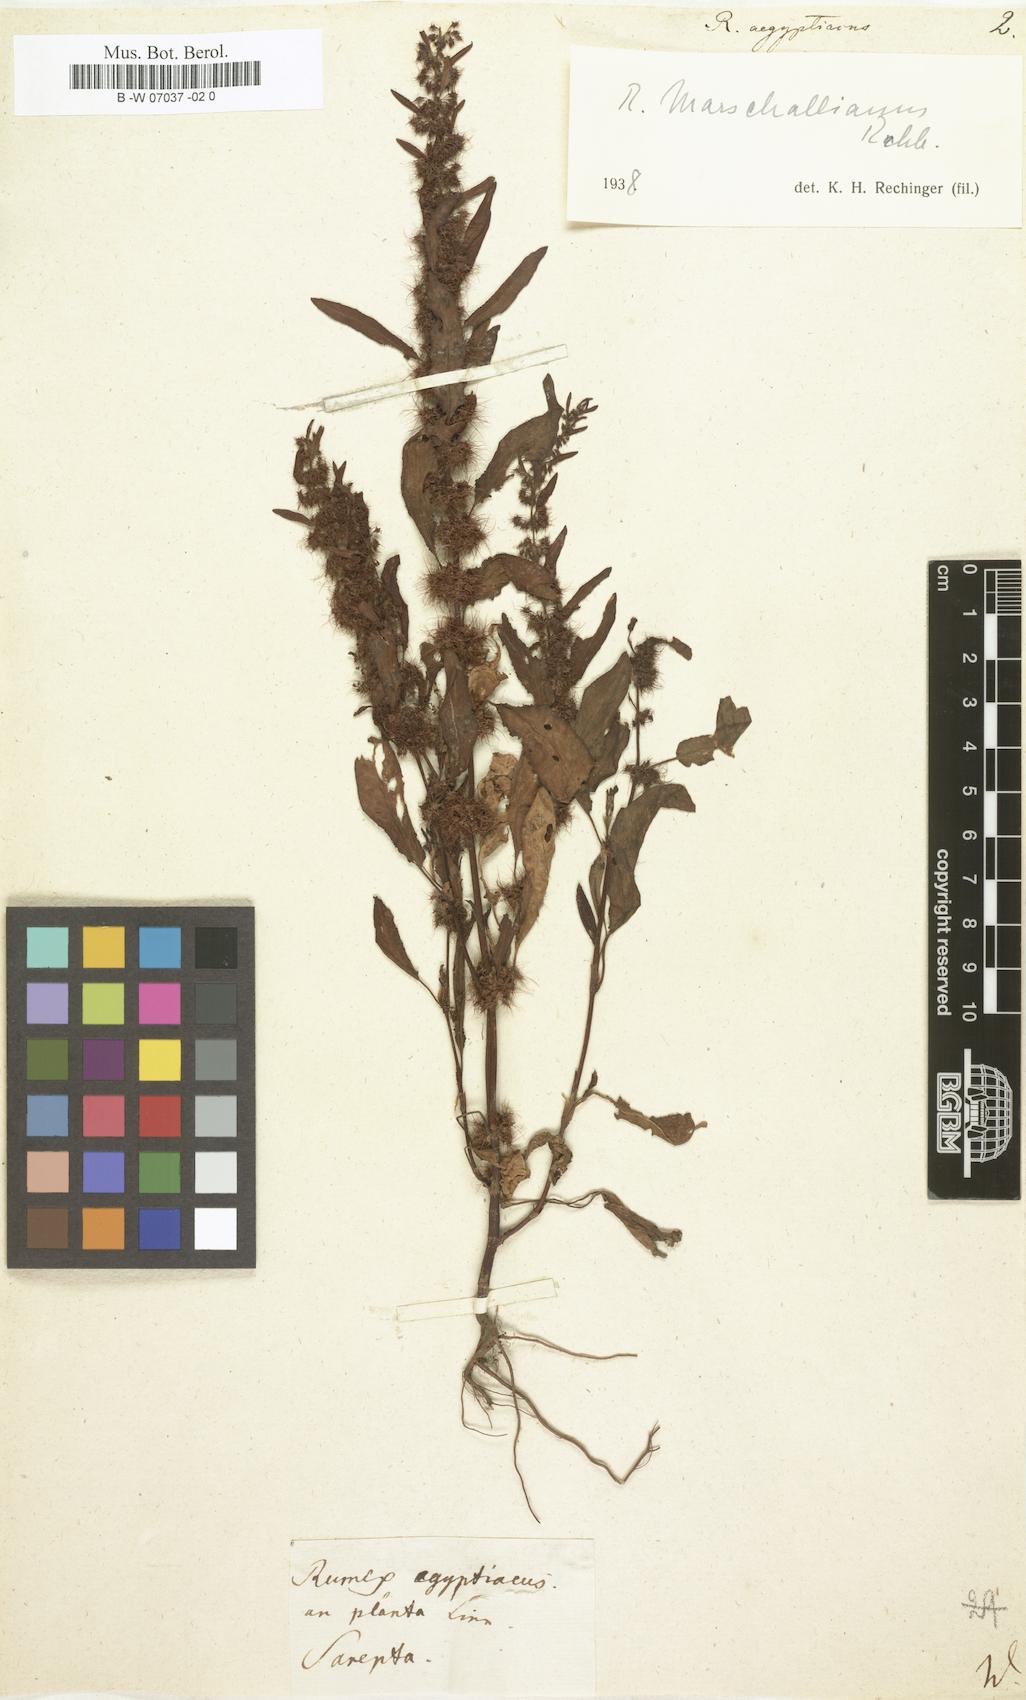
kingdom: Plantae
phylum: Tracheophyta
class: Magnoliopsida
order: Caryophyllales
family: Polygonaceae
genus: Rumex
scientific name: Rumex aegyptiacus
